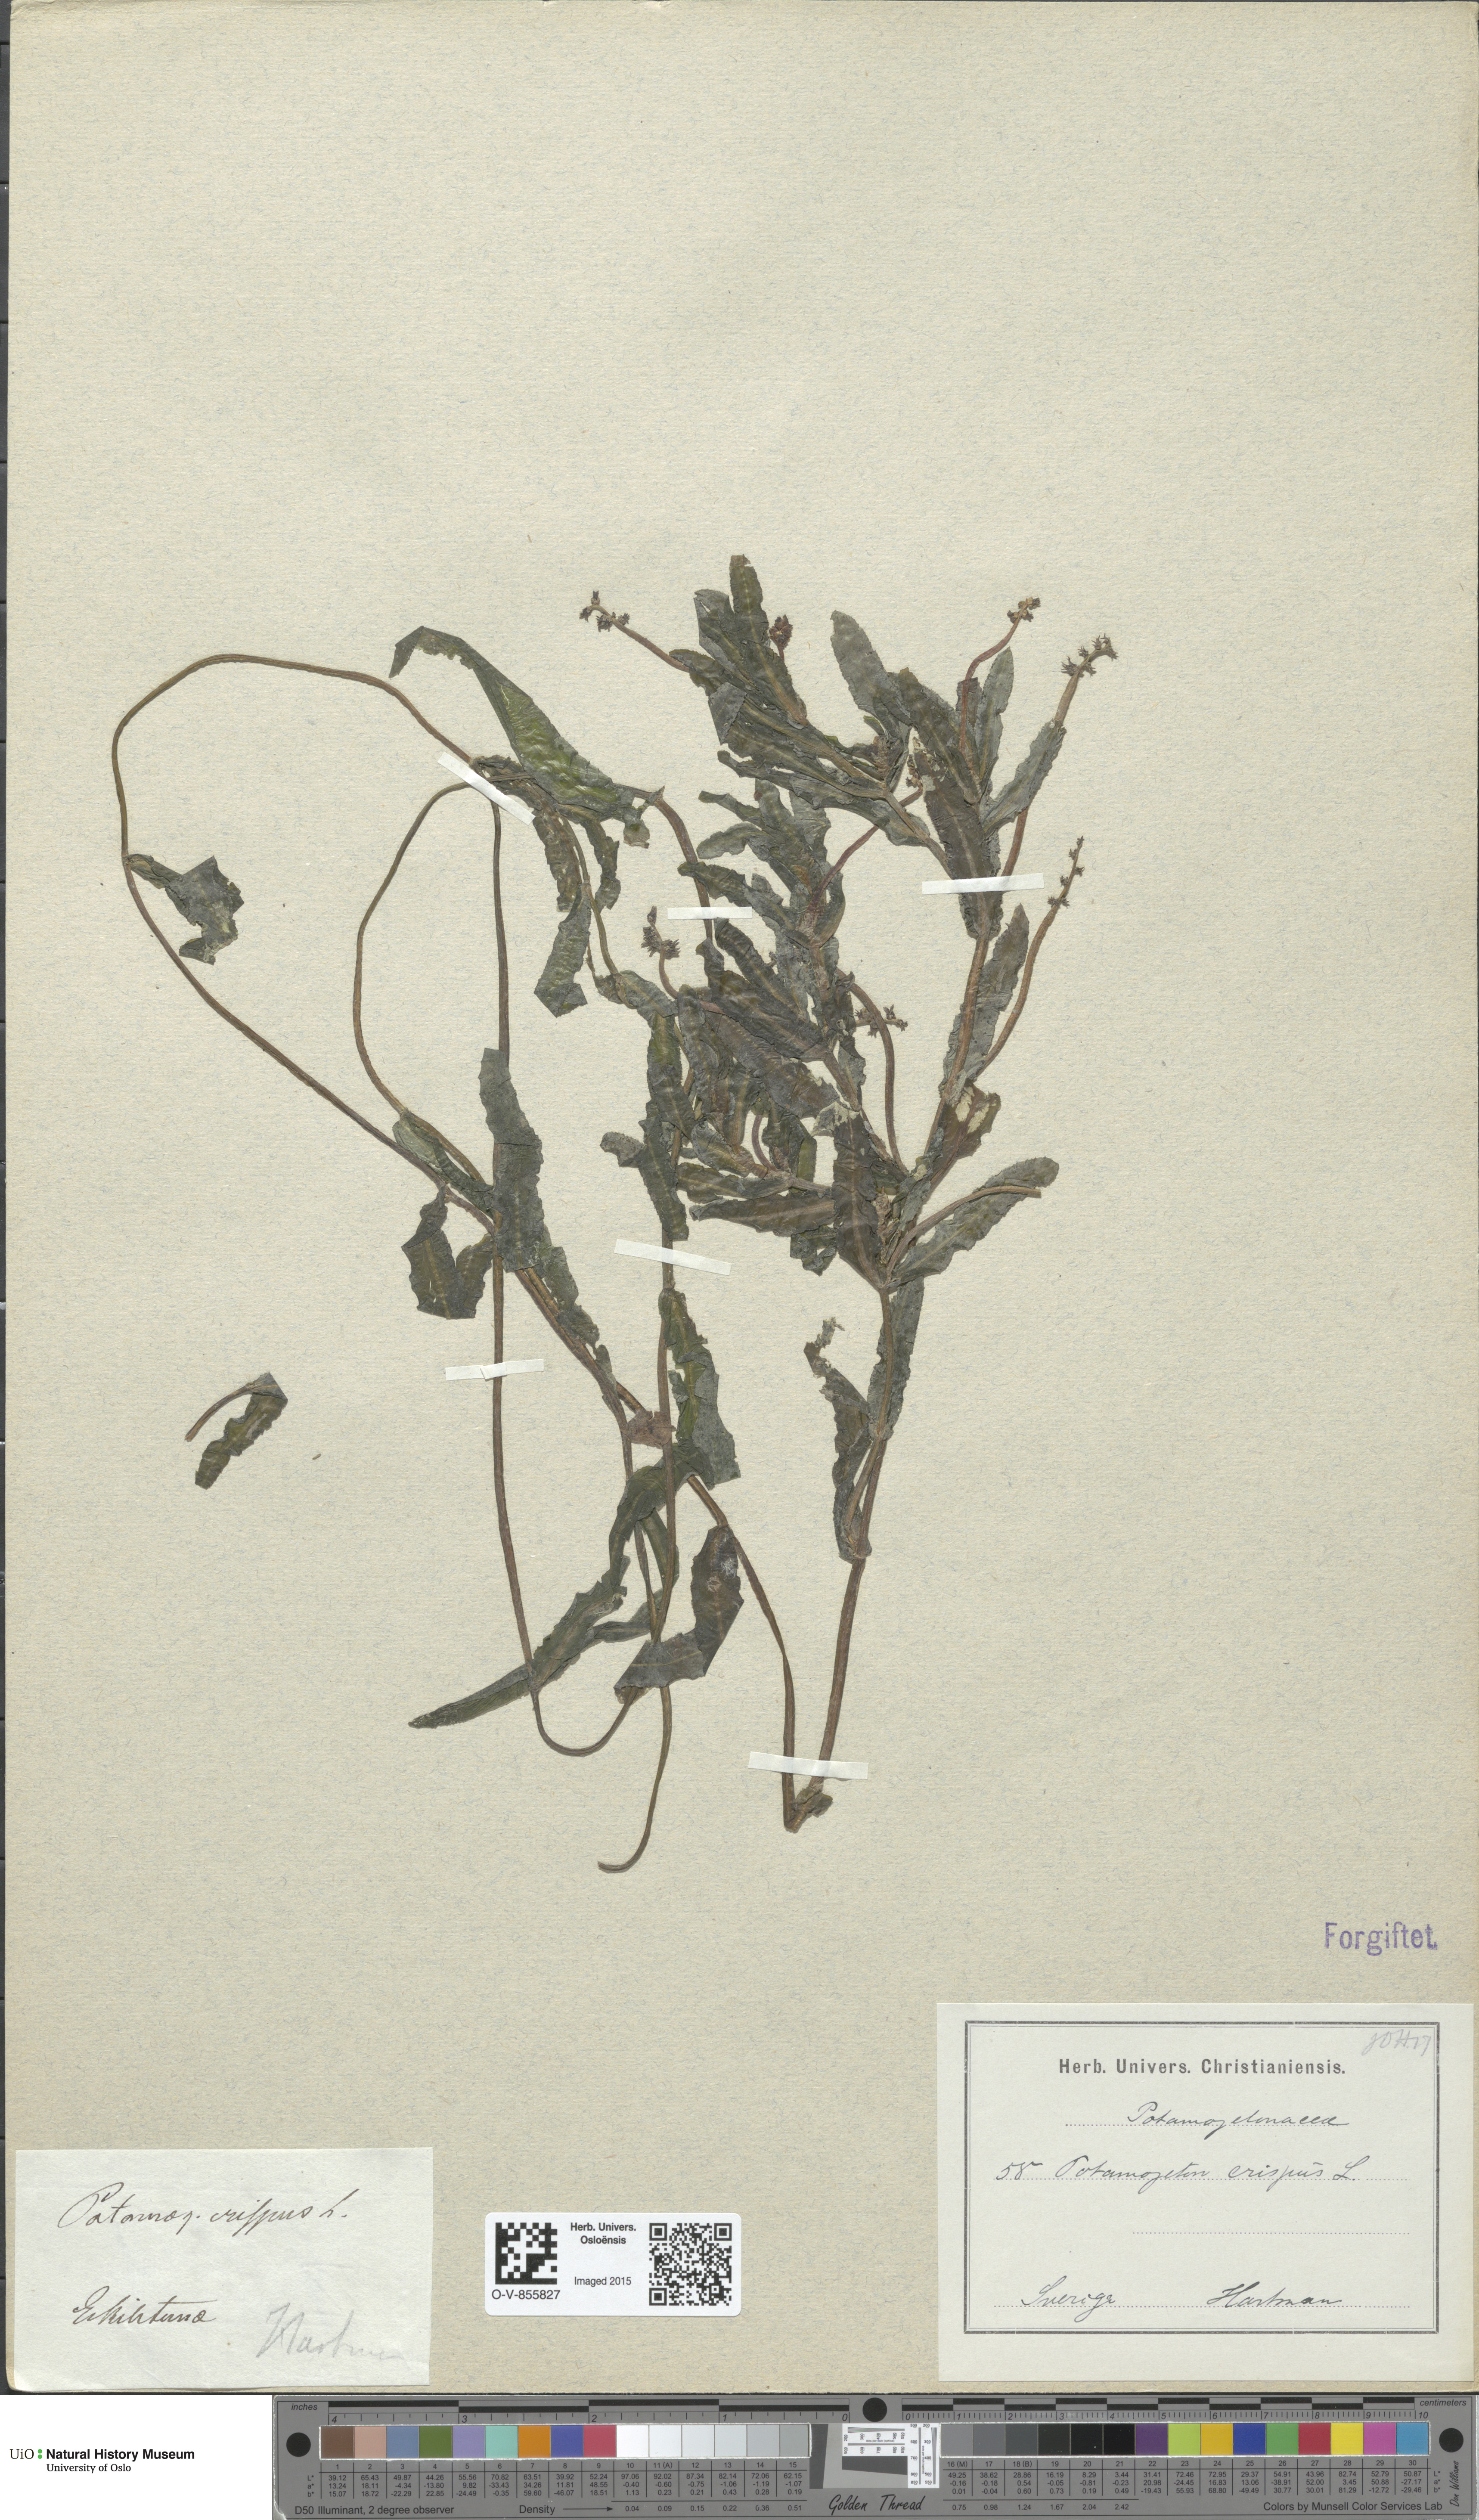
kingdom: Plantae
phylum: Tracheophyta
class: Liliopsida
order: Alismatales
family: Potamogetonaceae
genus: Potamogeton
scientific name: Potamogeton crispus
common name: Curled pondweed
